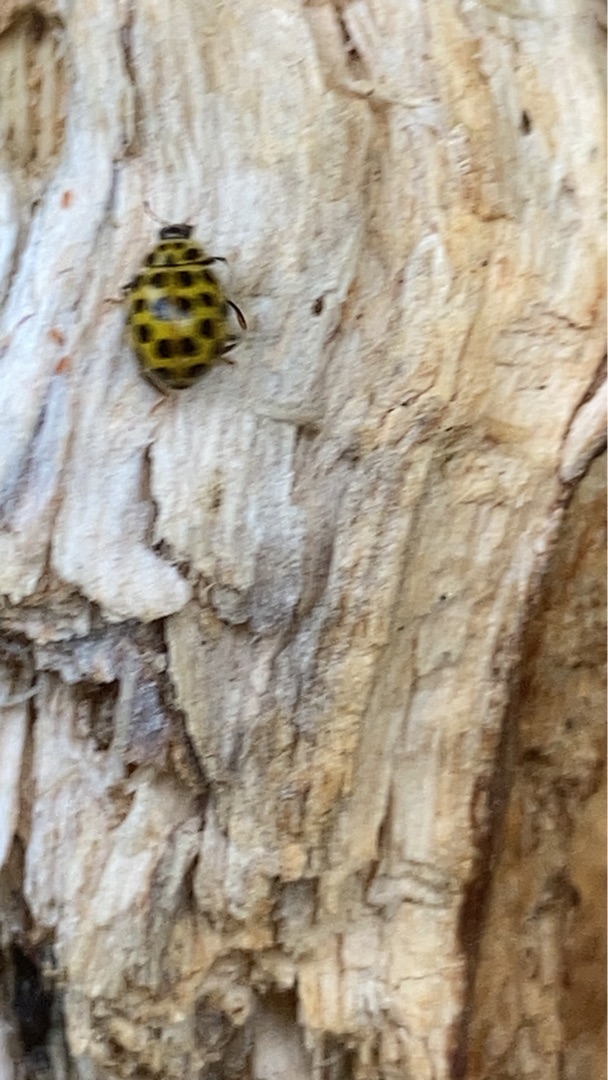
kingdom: Animalia
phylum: Arthropoda
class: Insecta
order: Coleoptera
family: Coccinellidae
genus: Psyllobora
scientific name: Psyllobora vigintiduopunctata
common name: Toogtyveplettet mariehøne
